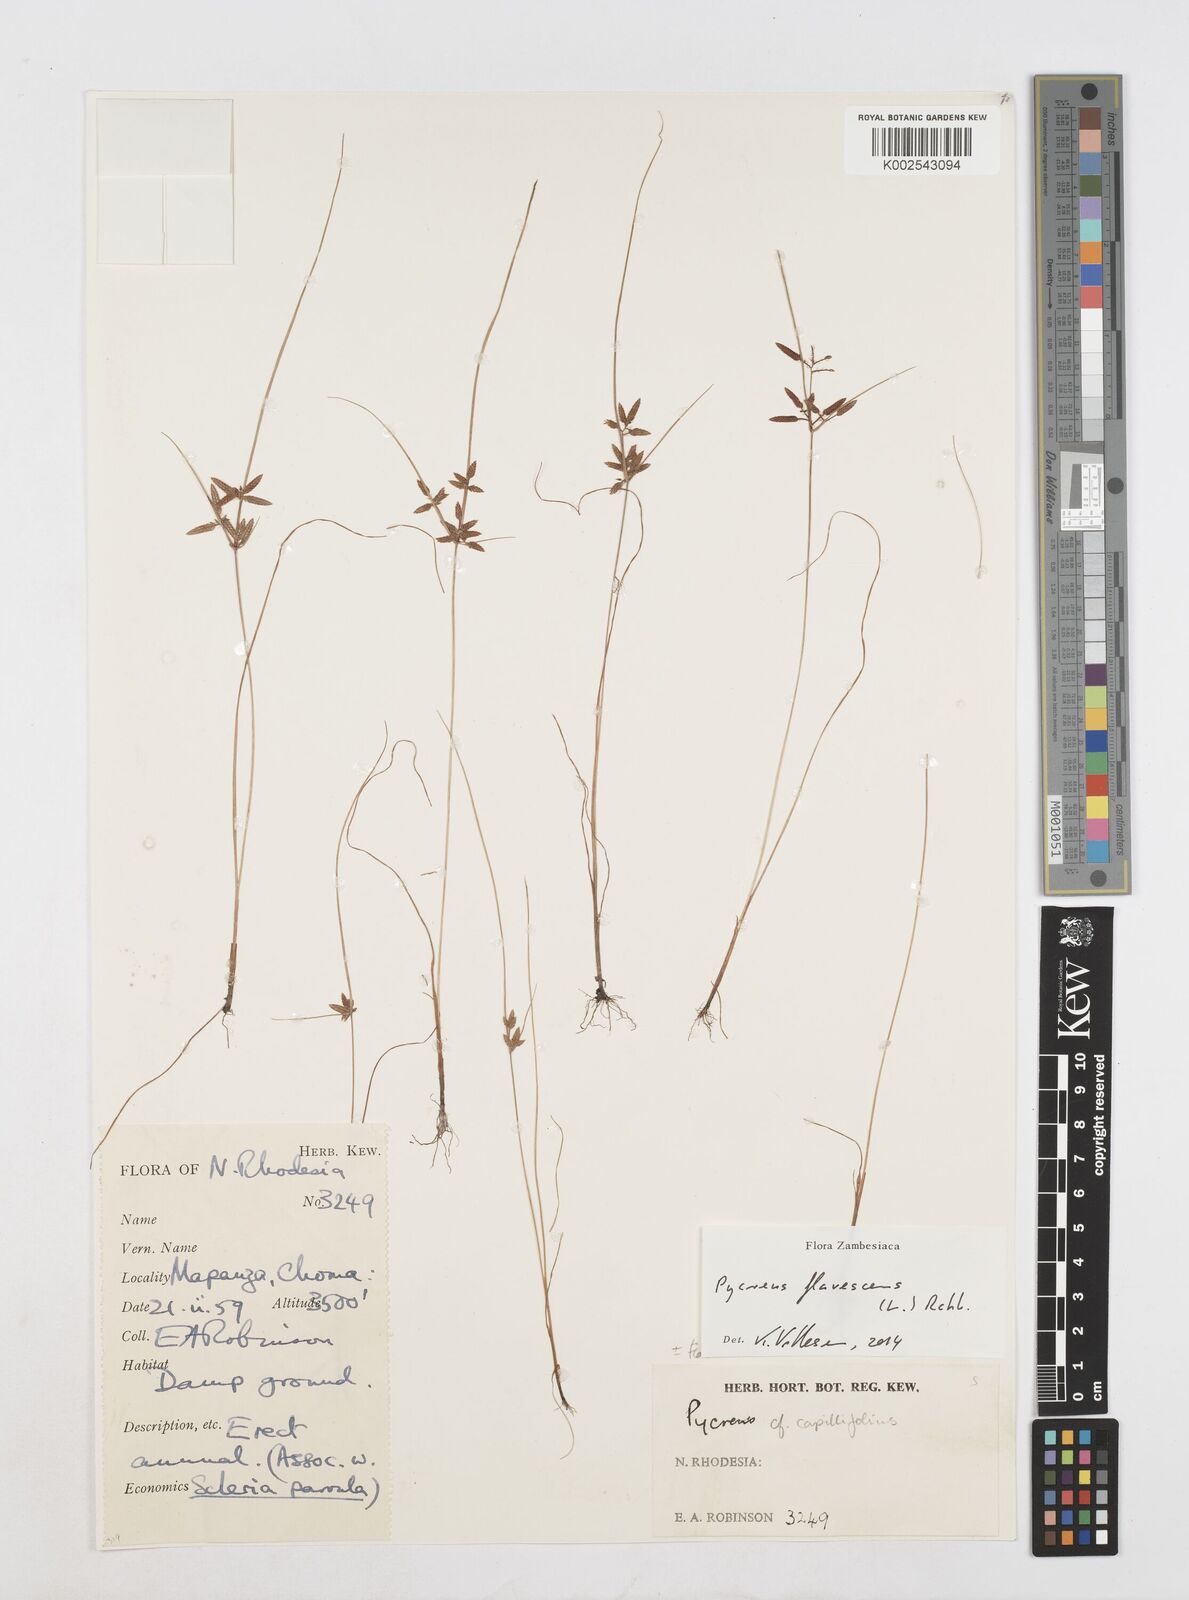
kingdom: Plantae
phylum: Tracheophyta
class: Liliopsida
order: Poales
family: Cyperaceae
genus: Cyperus
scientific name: Cyperus flavescens
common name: Yellow galingale
